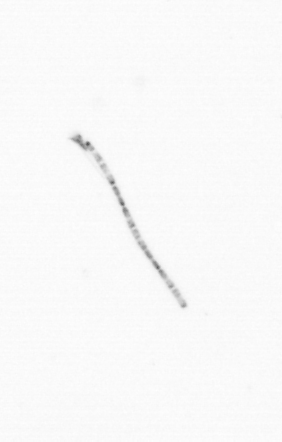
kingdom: Chromista
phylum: Ochrophyta
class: Bacillariophyceae
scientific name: Bacillariophyceae
